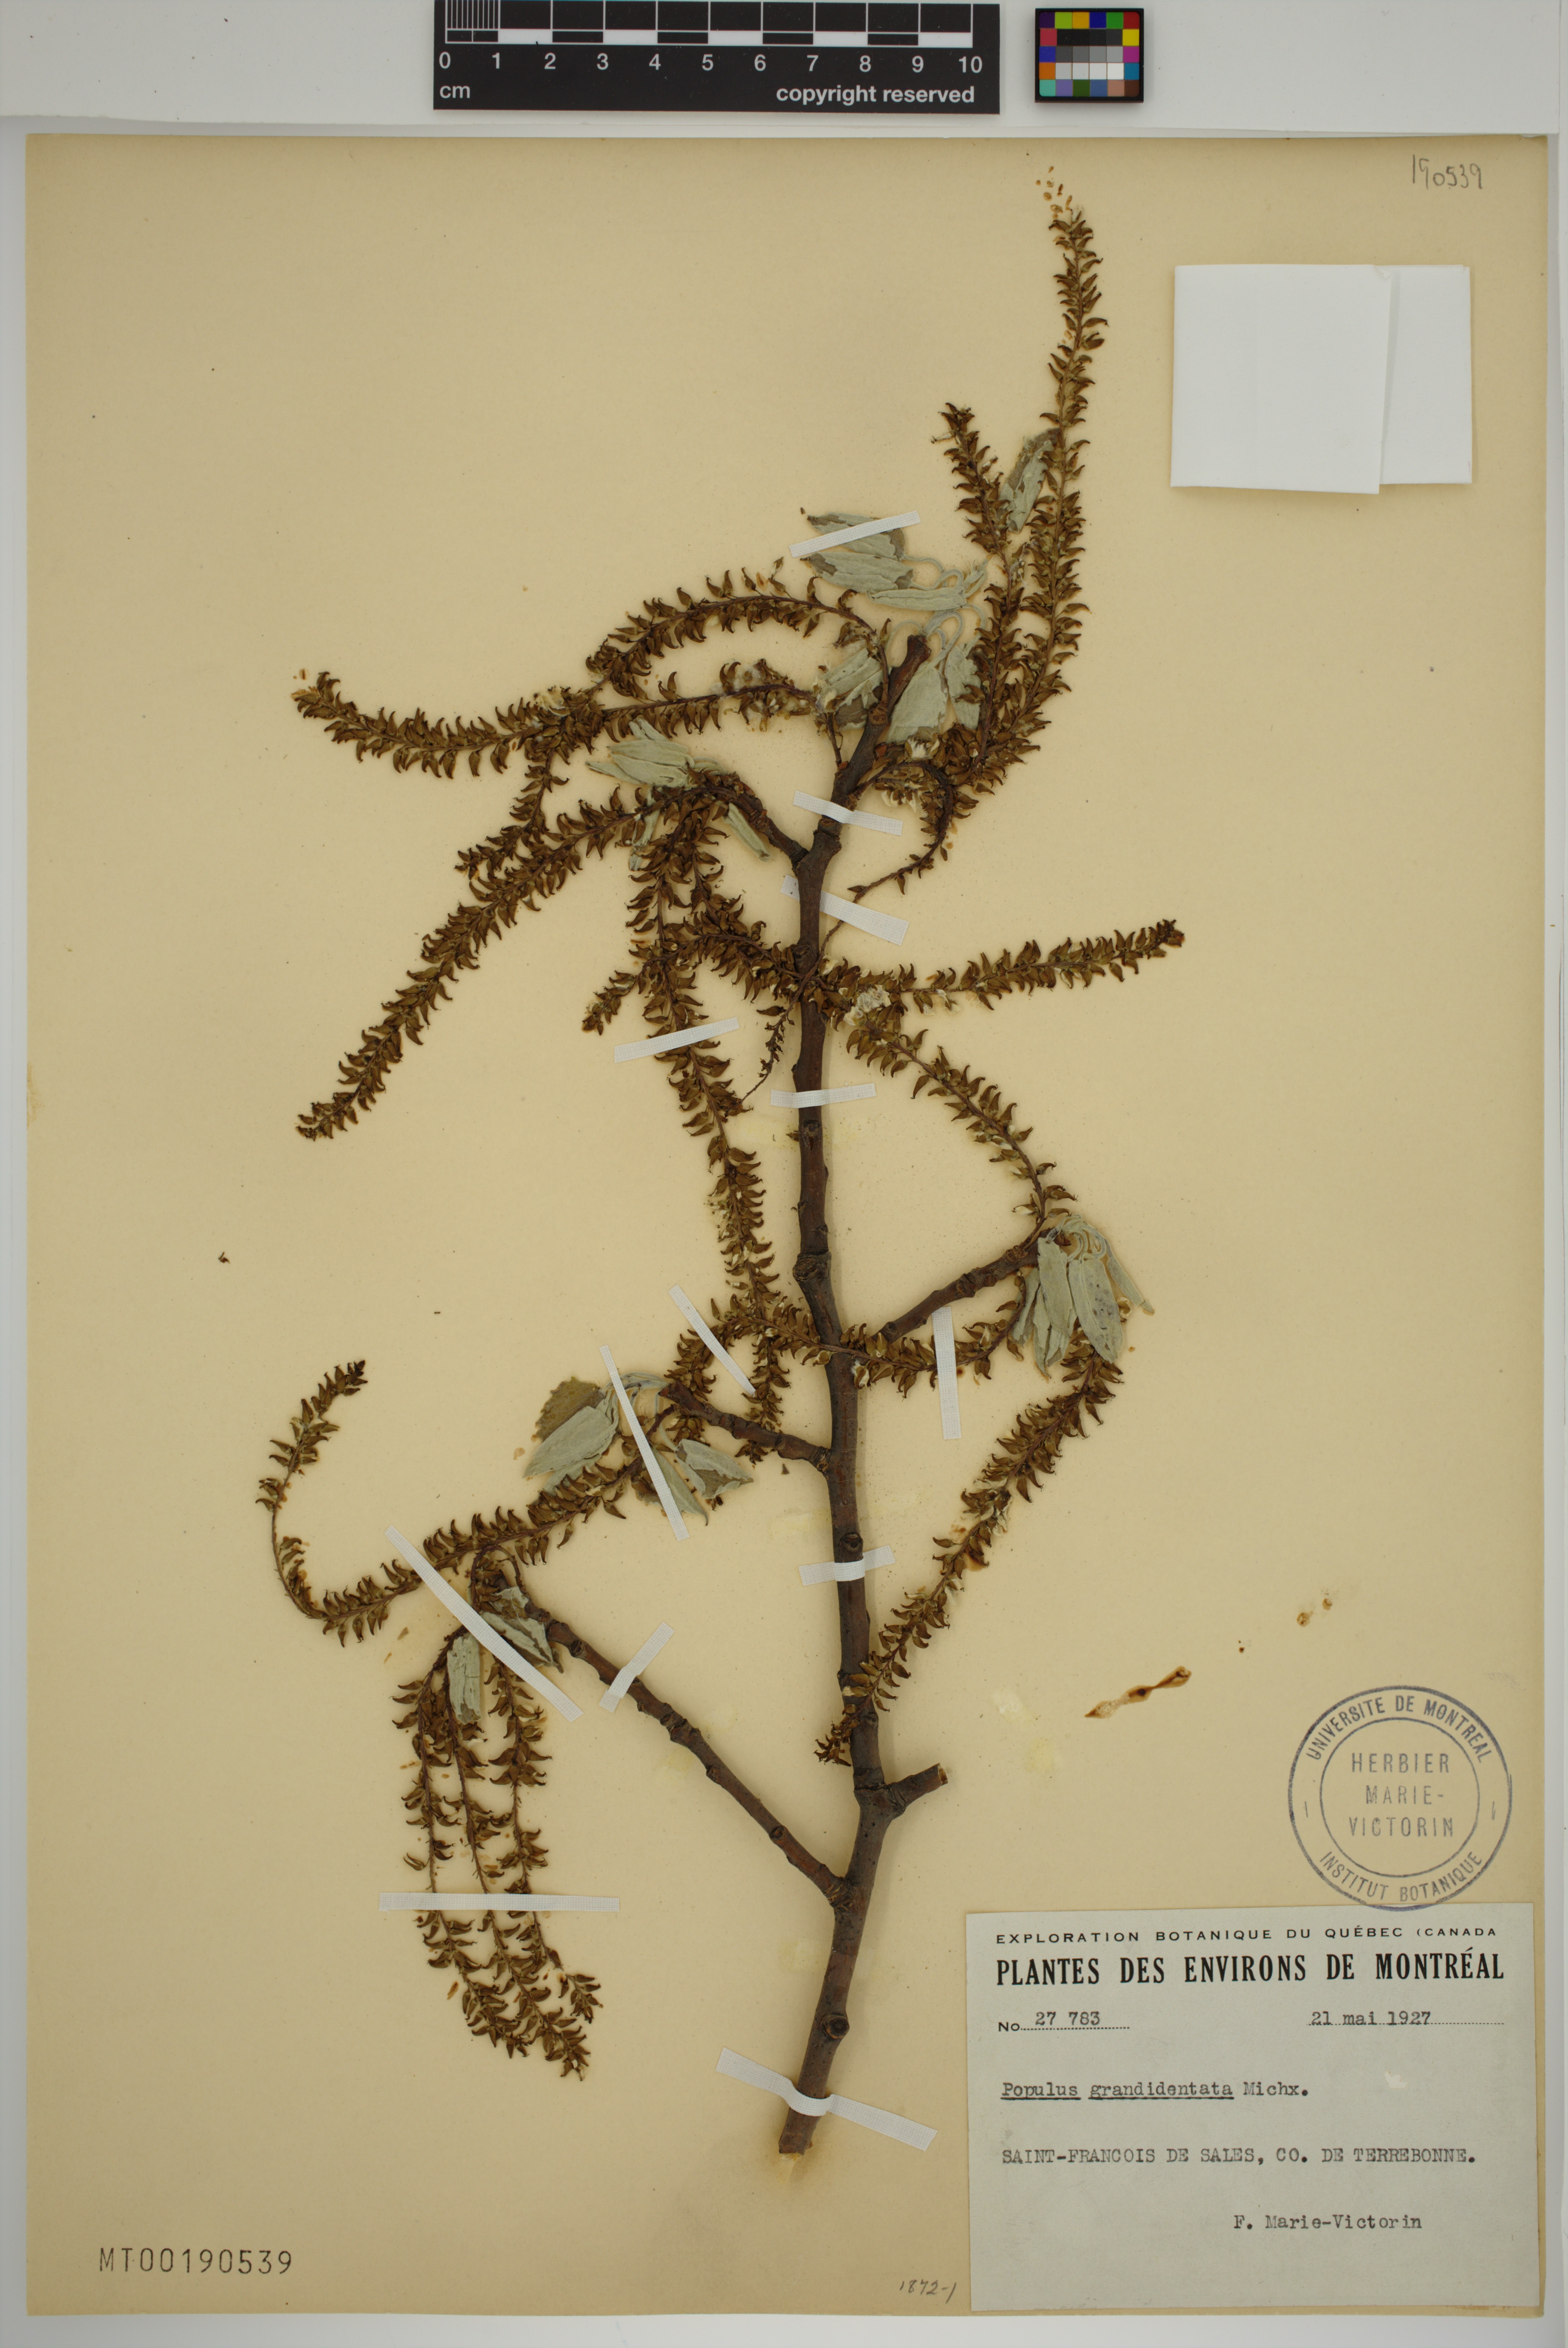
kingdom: Plantae
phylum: Tracheophyta
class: Magnoliopsida
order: Malpighiales
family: Salicaceae
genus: Populus
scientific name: Populus grandidentata
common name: Bigtooth aspen
